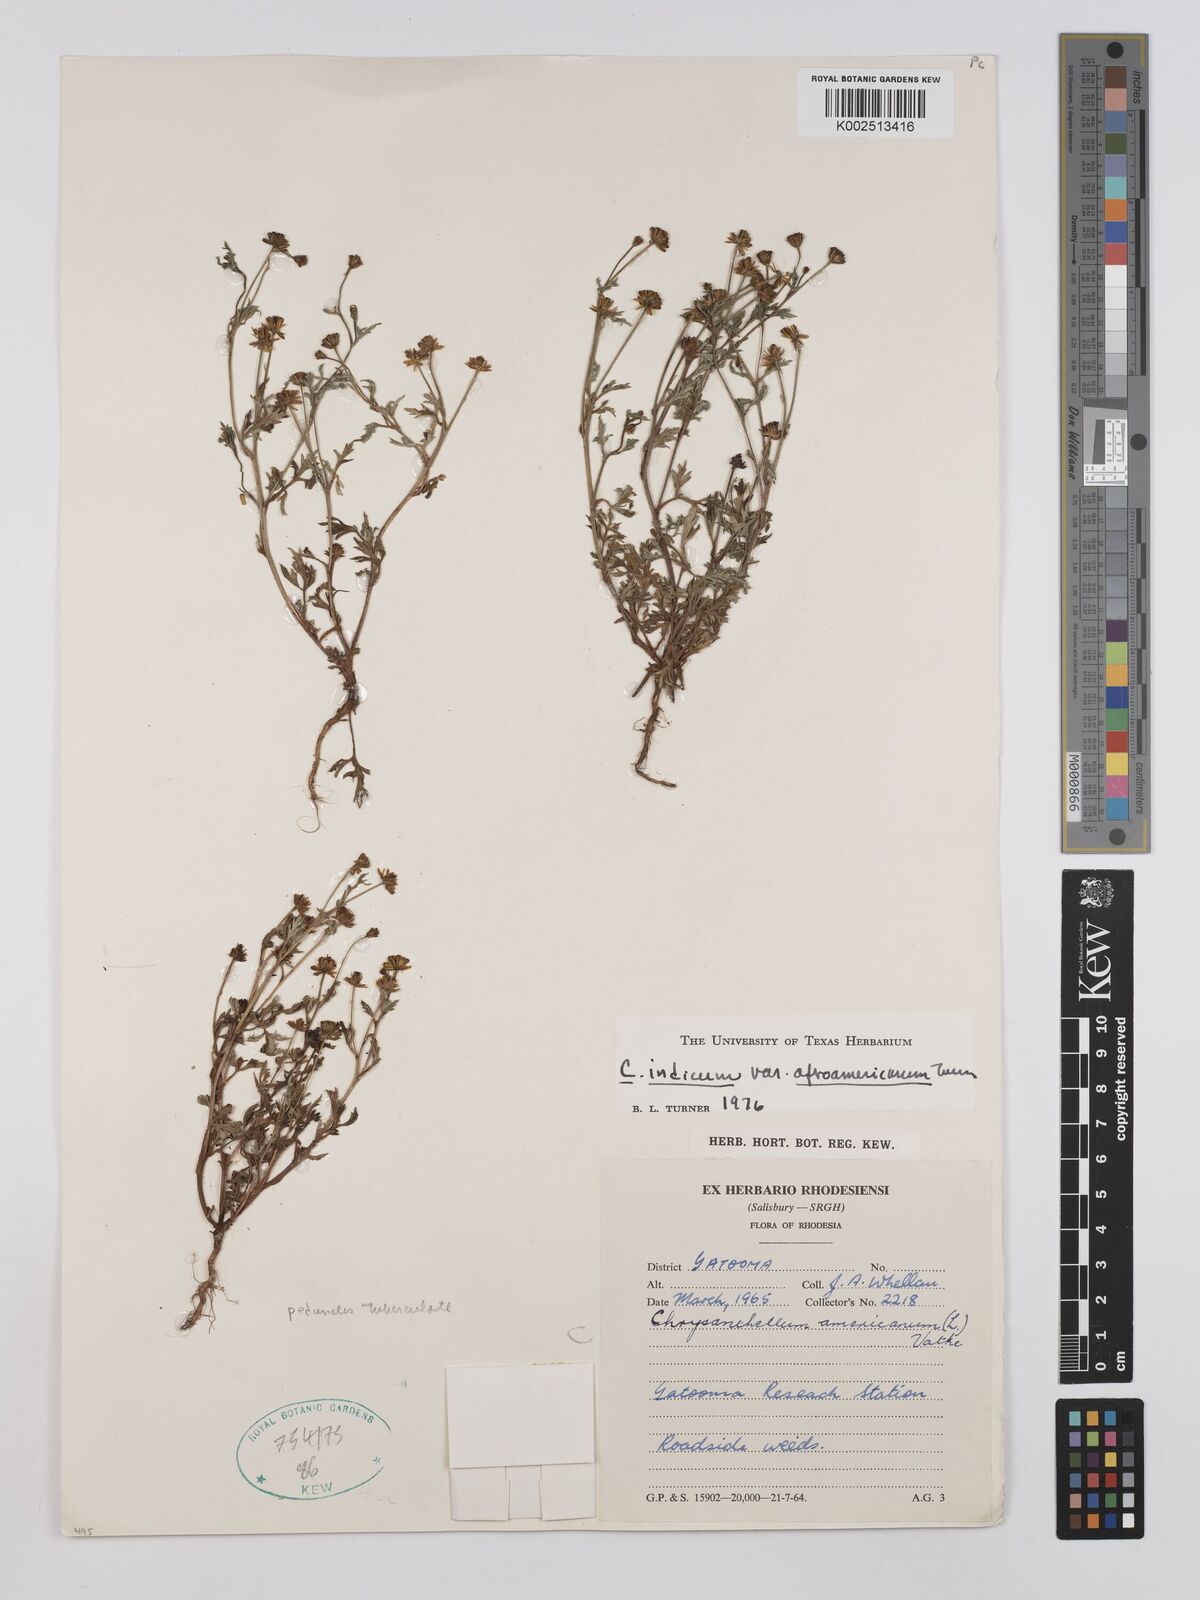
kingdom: Plantae
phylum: Tracheophyta
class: Magnoliopsida
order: Asterales
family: Asteraceae
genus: Chrysanthellum
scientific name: Chrysanthellum indicum
